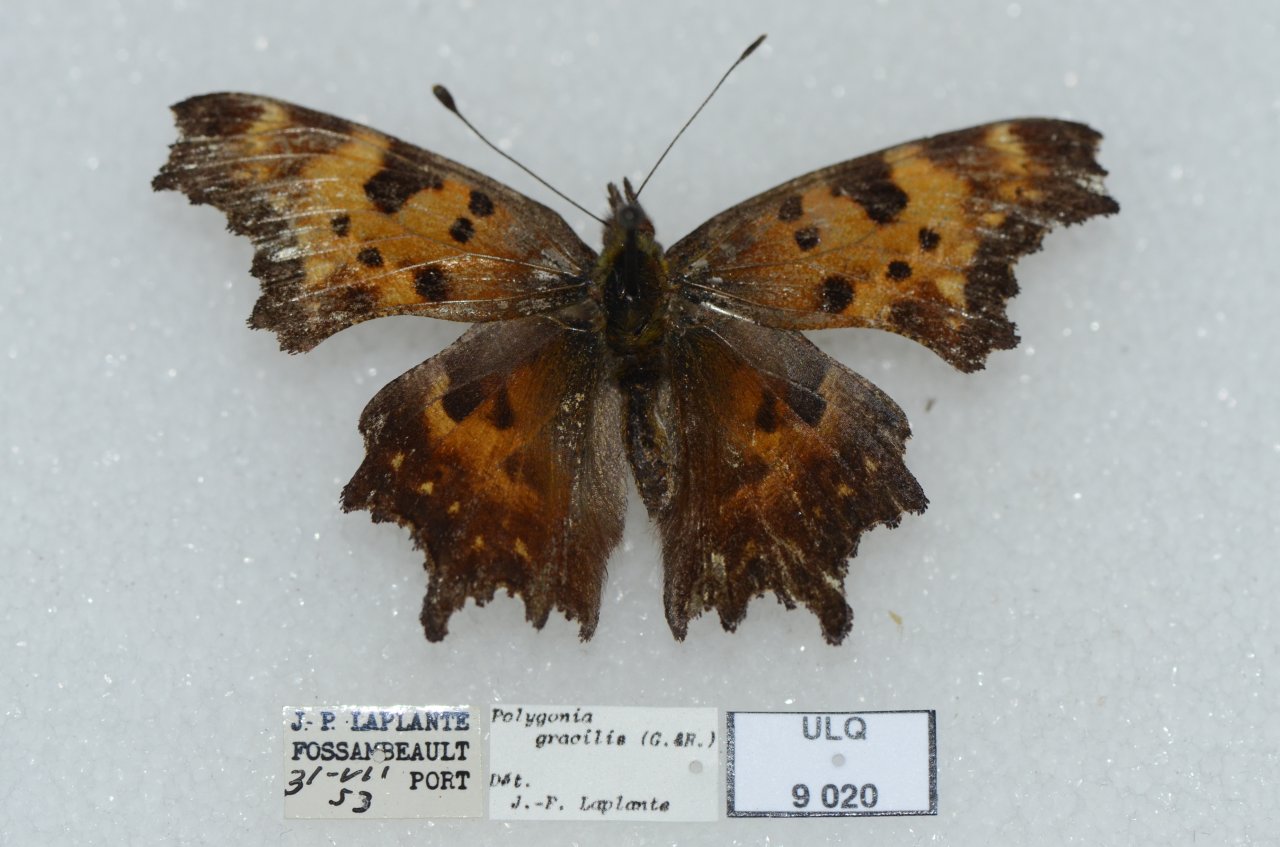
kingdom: Animalia
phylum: Arthropoda
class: Insecta
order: Lepidoptera
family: Nymphalidae
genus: Polygonia
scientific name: Polygonia gracilis
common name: Hoary Comma
